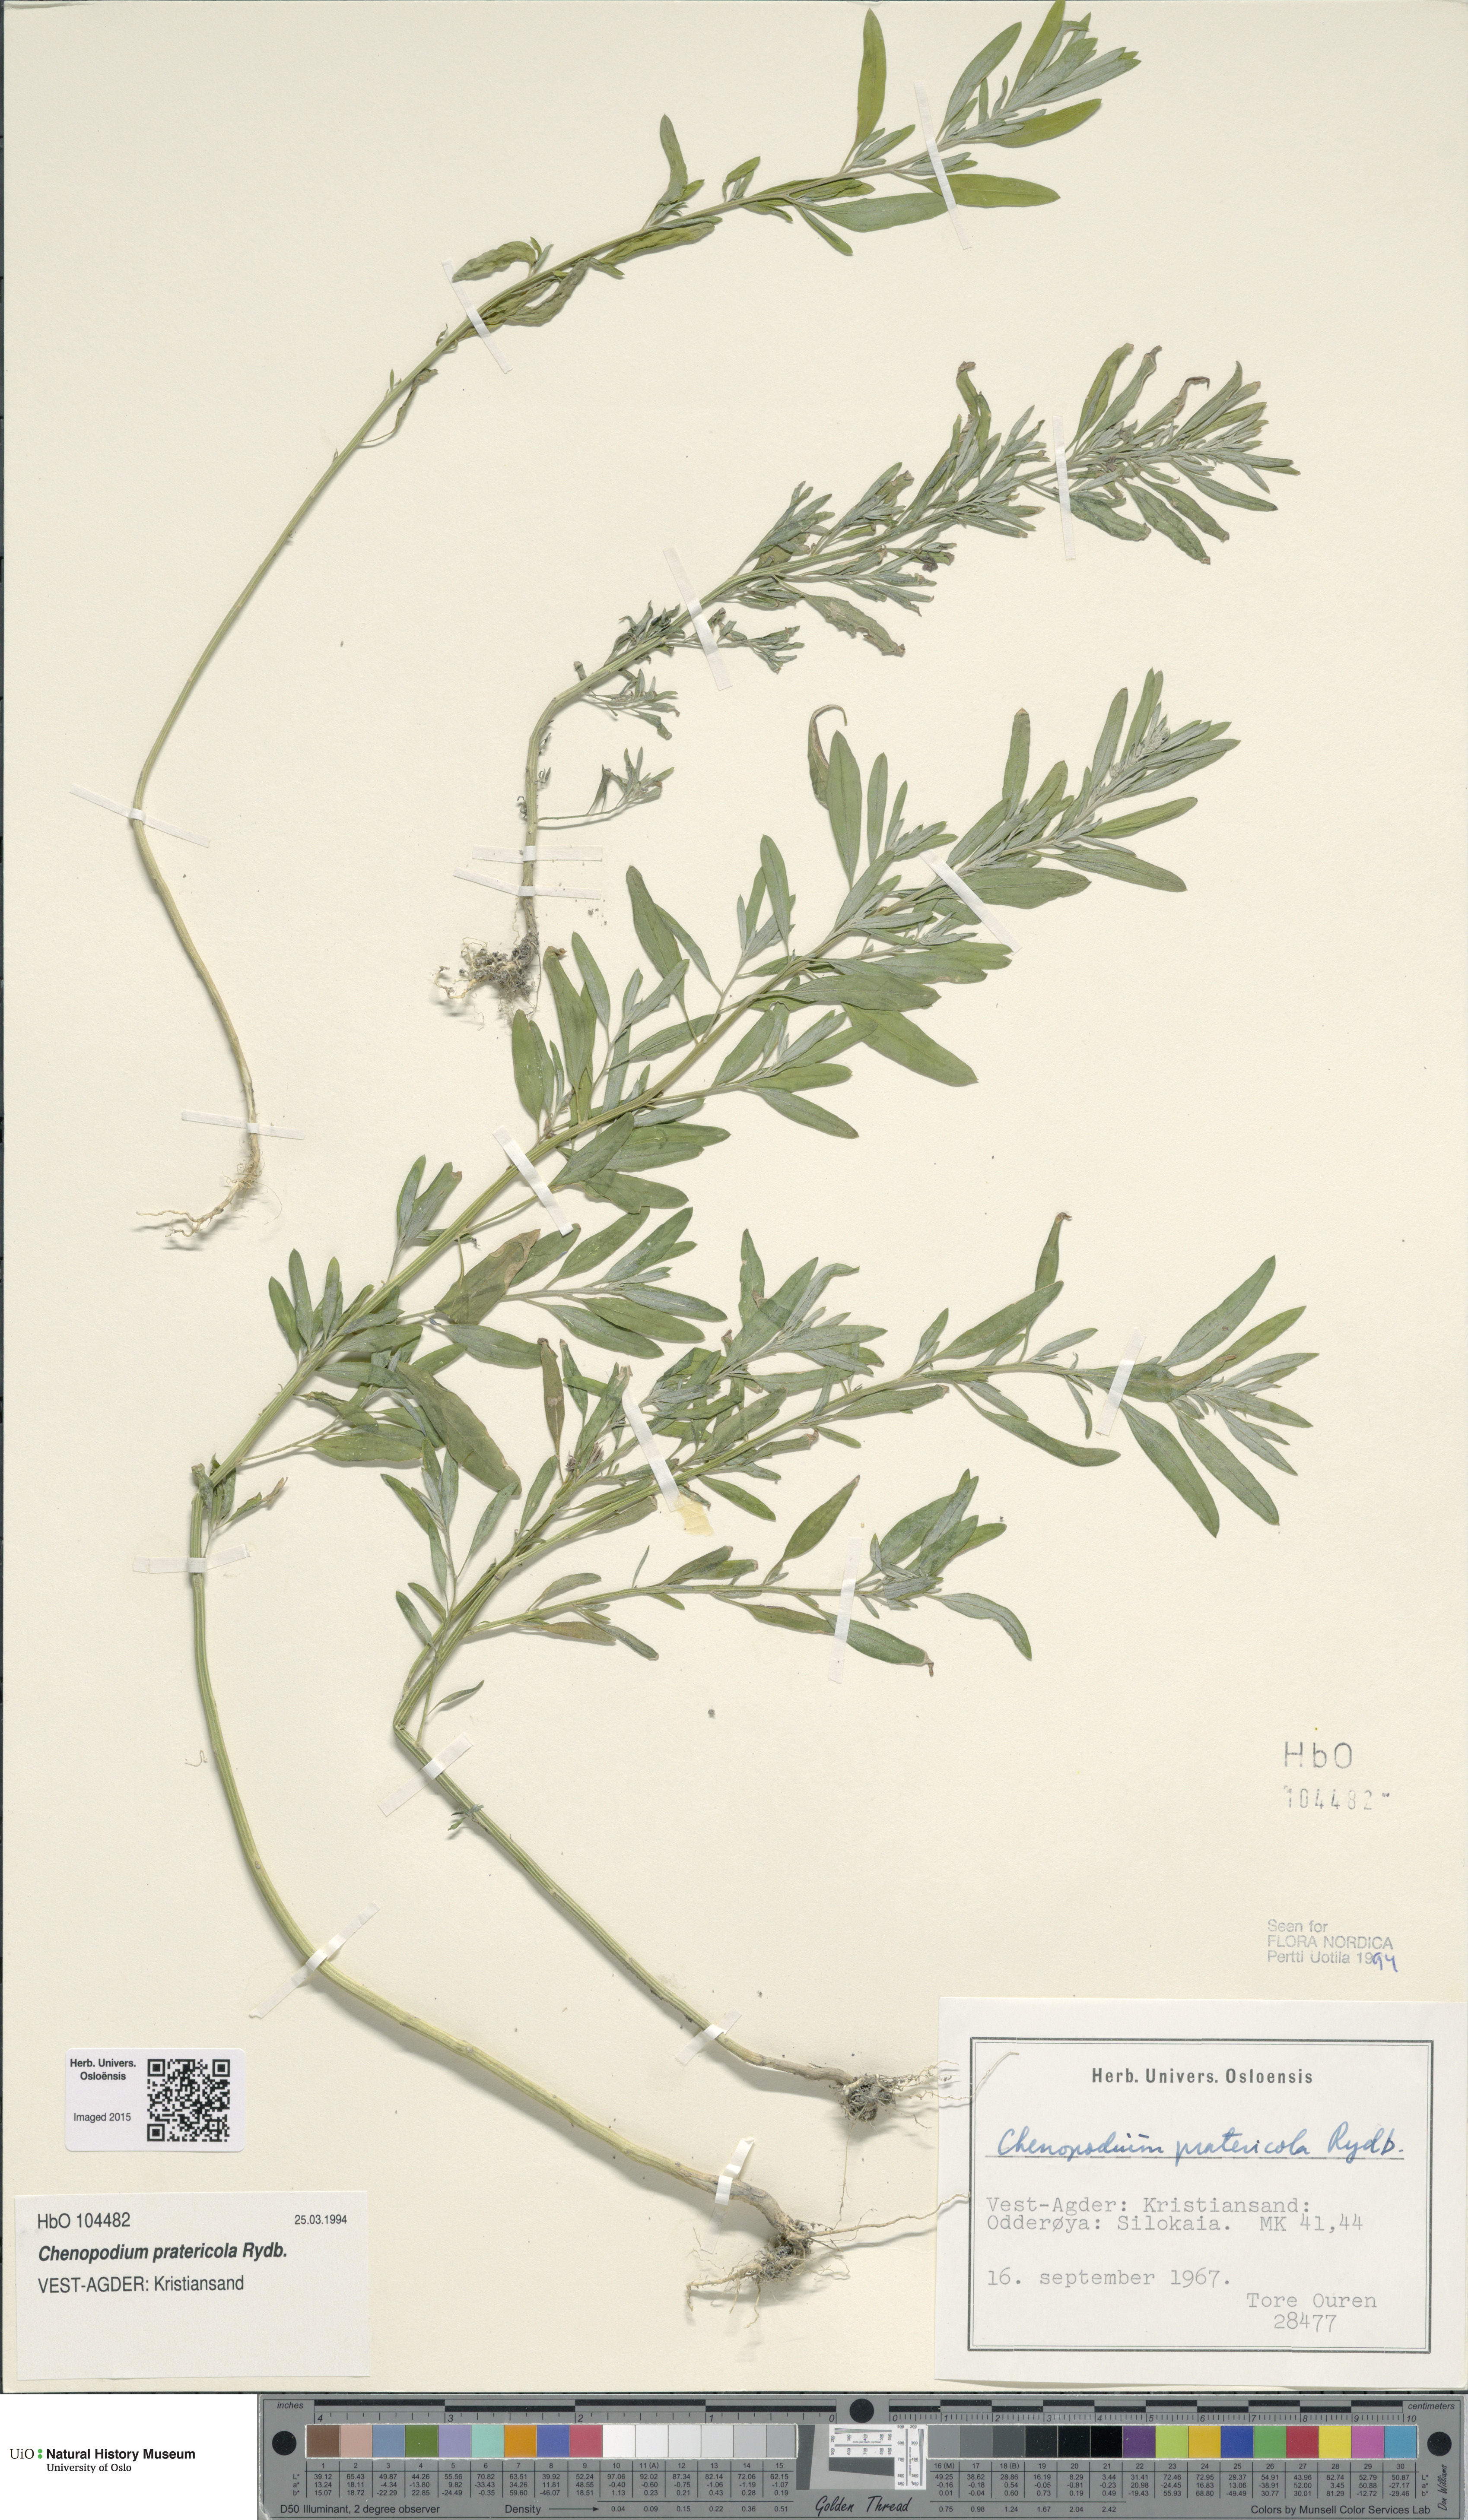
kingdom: Plantae
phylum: Tracheophyta
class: Magnoliopsida
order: Caryophyllales
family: Amaranthaceae
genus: Chenopodium
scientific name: Chenopodium pratericola
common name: Desert goosefoot
